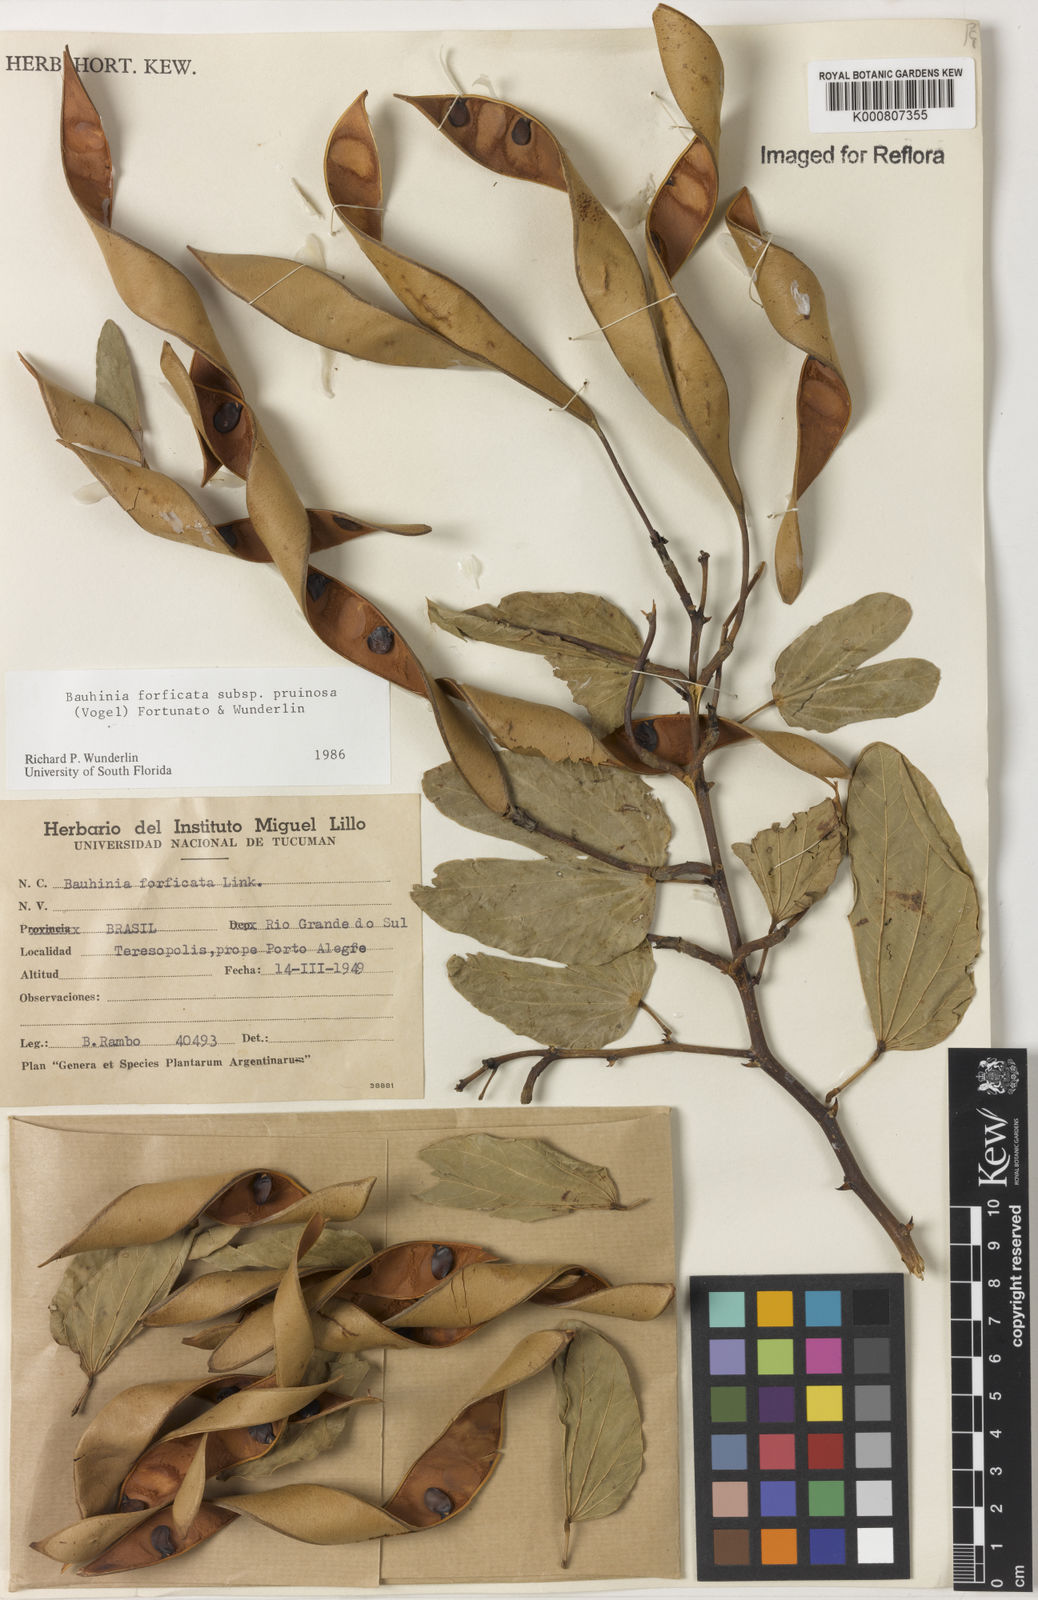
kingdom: Plantae
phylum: Tracheophyta
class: Magnoliopsida
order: Fabales
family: Fabaceae
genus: Bauhinia
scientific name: Bauhinia forficata
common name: Orchid tree
